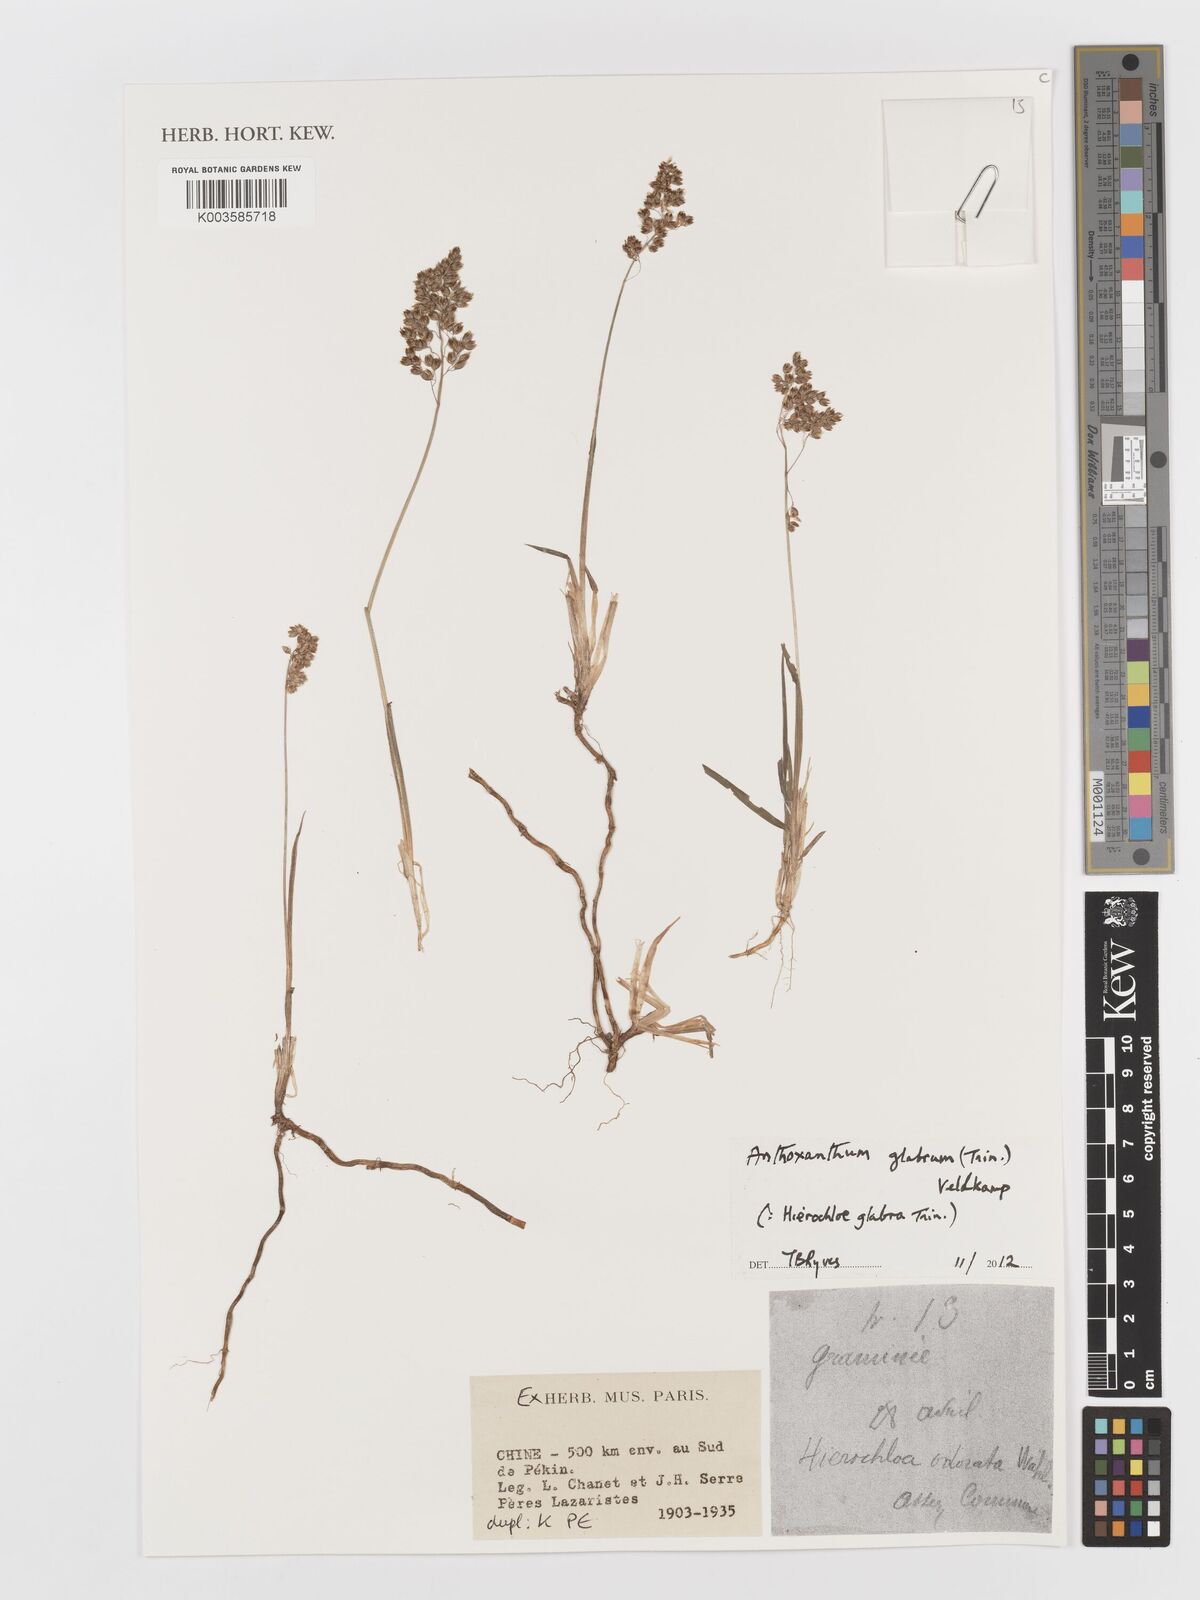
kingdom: Plantae
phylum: Tracheophyta
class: Liliopsida
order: Poales
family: Poaceae
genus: Anthoxanthum
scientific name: Anthoxanthum glabrum
